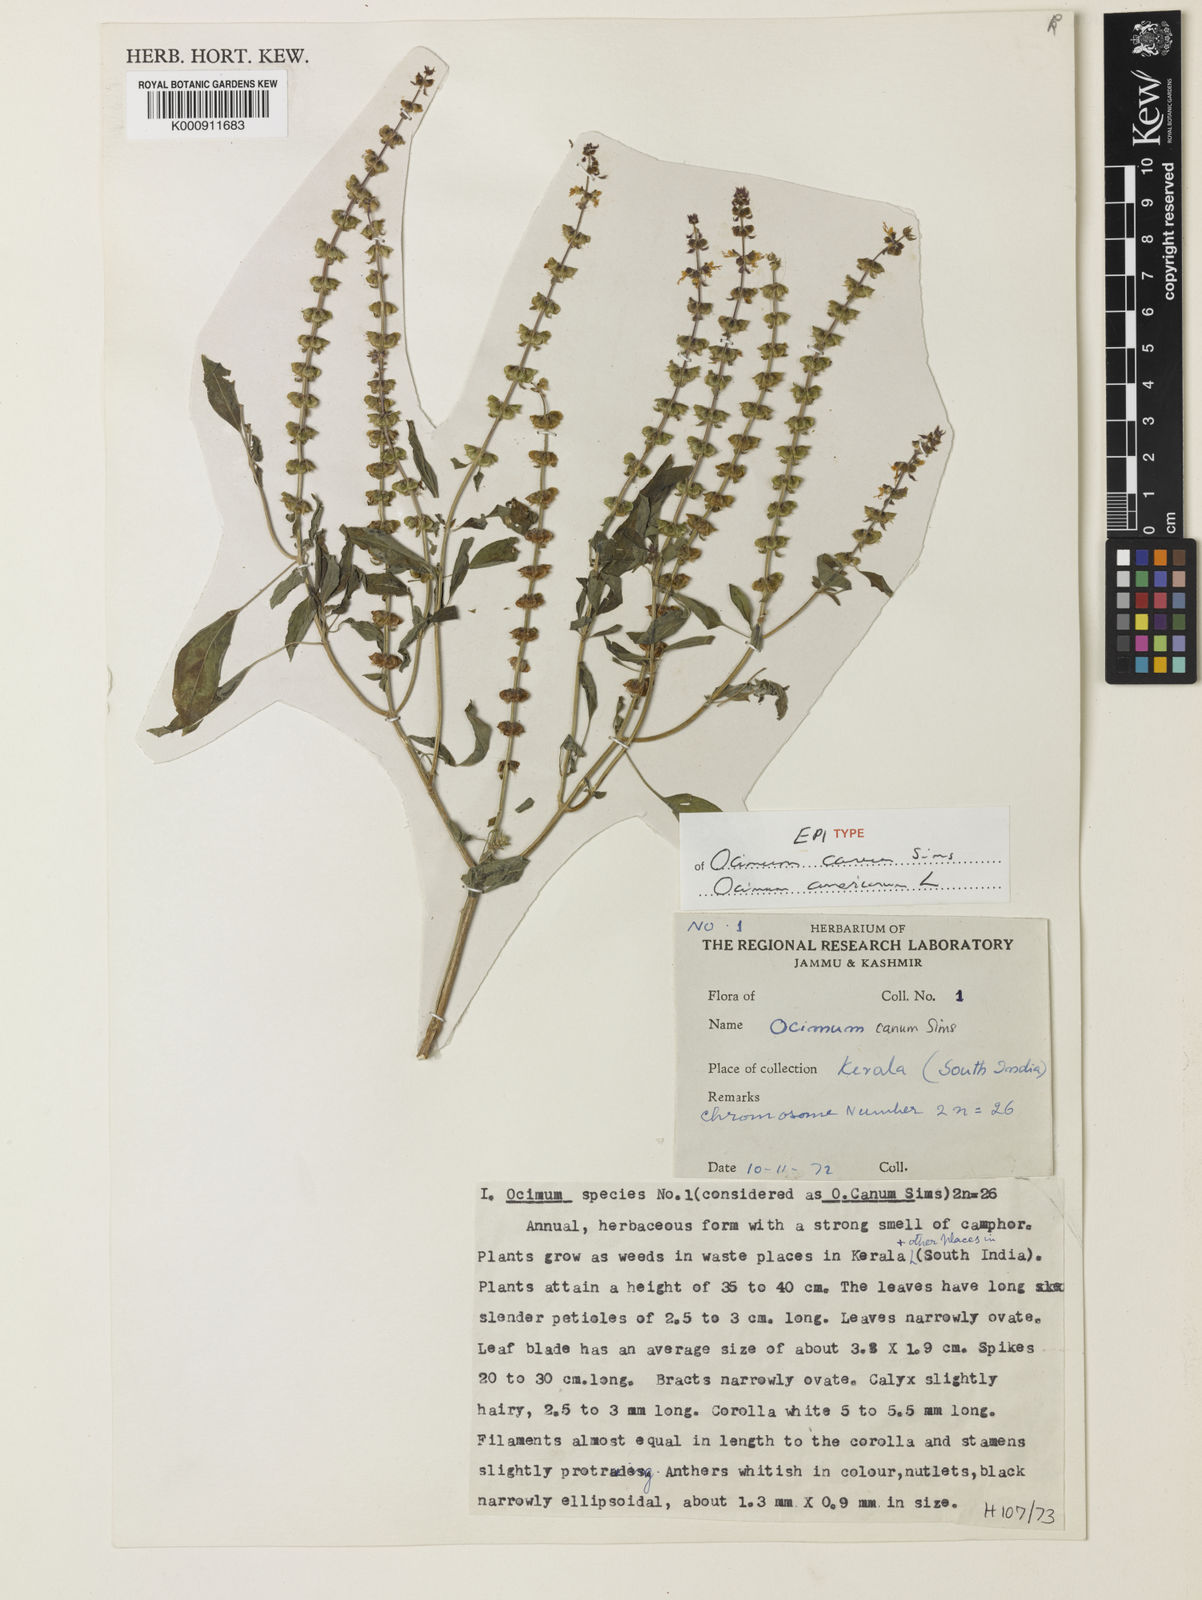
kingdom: Plantae
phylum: Tracheophyta
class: Magnoliopsida
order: Lamiales
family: Lamiaceae
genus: Ocimum
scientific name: Ocimum americanum
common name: American basil
